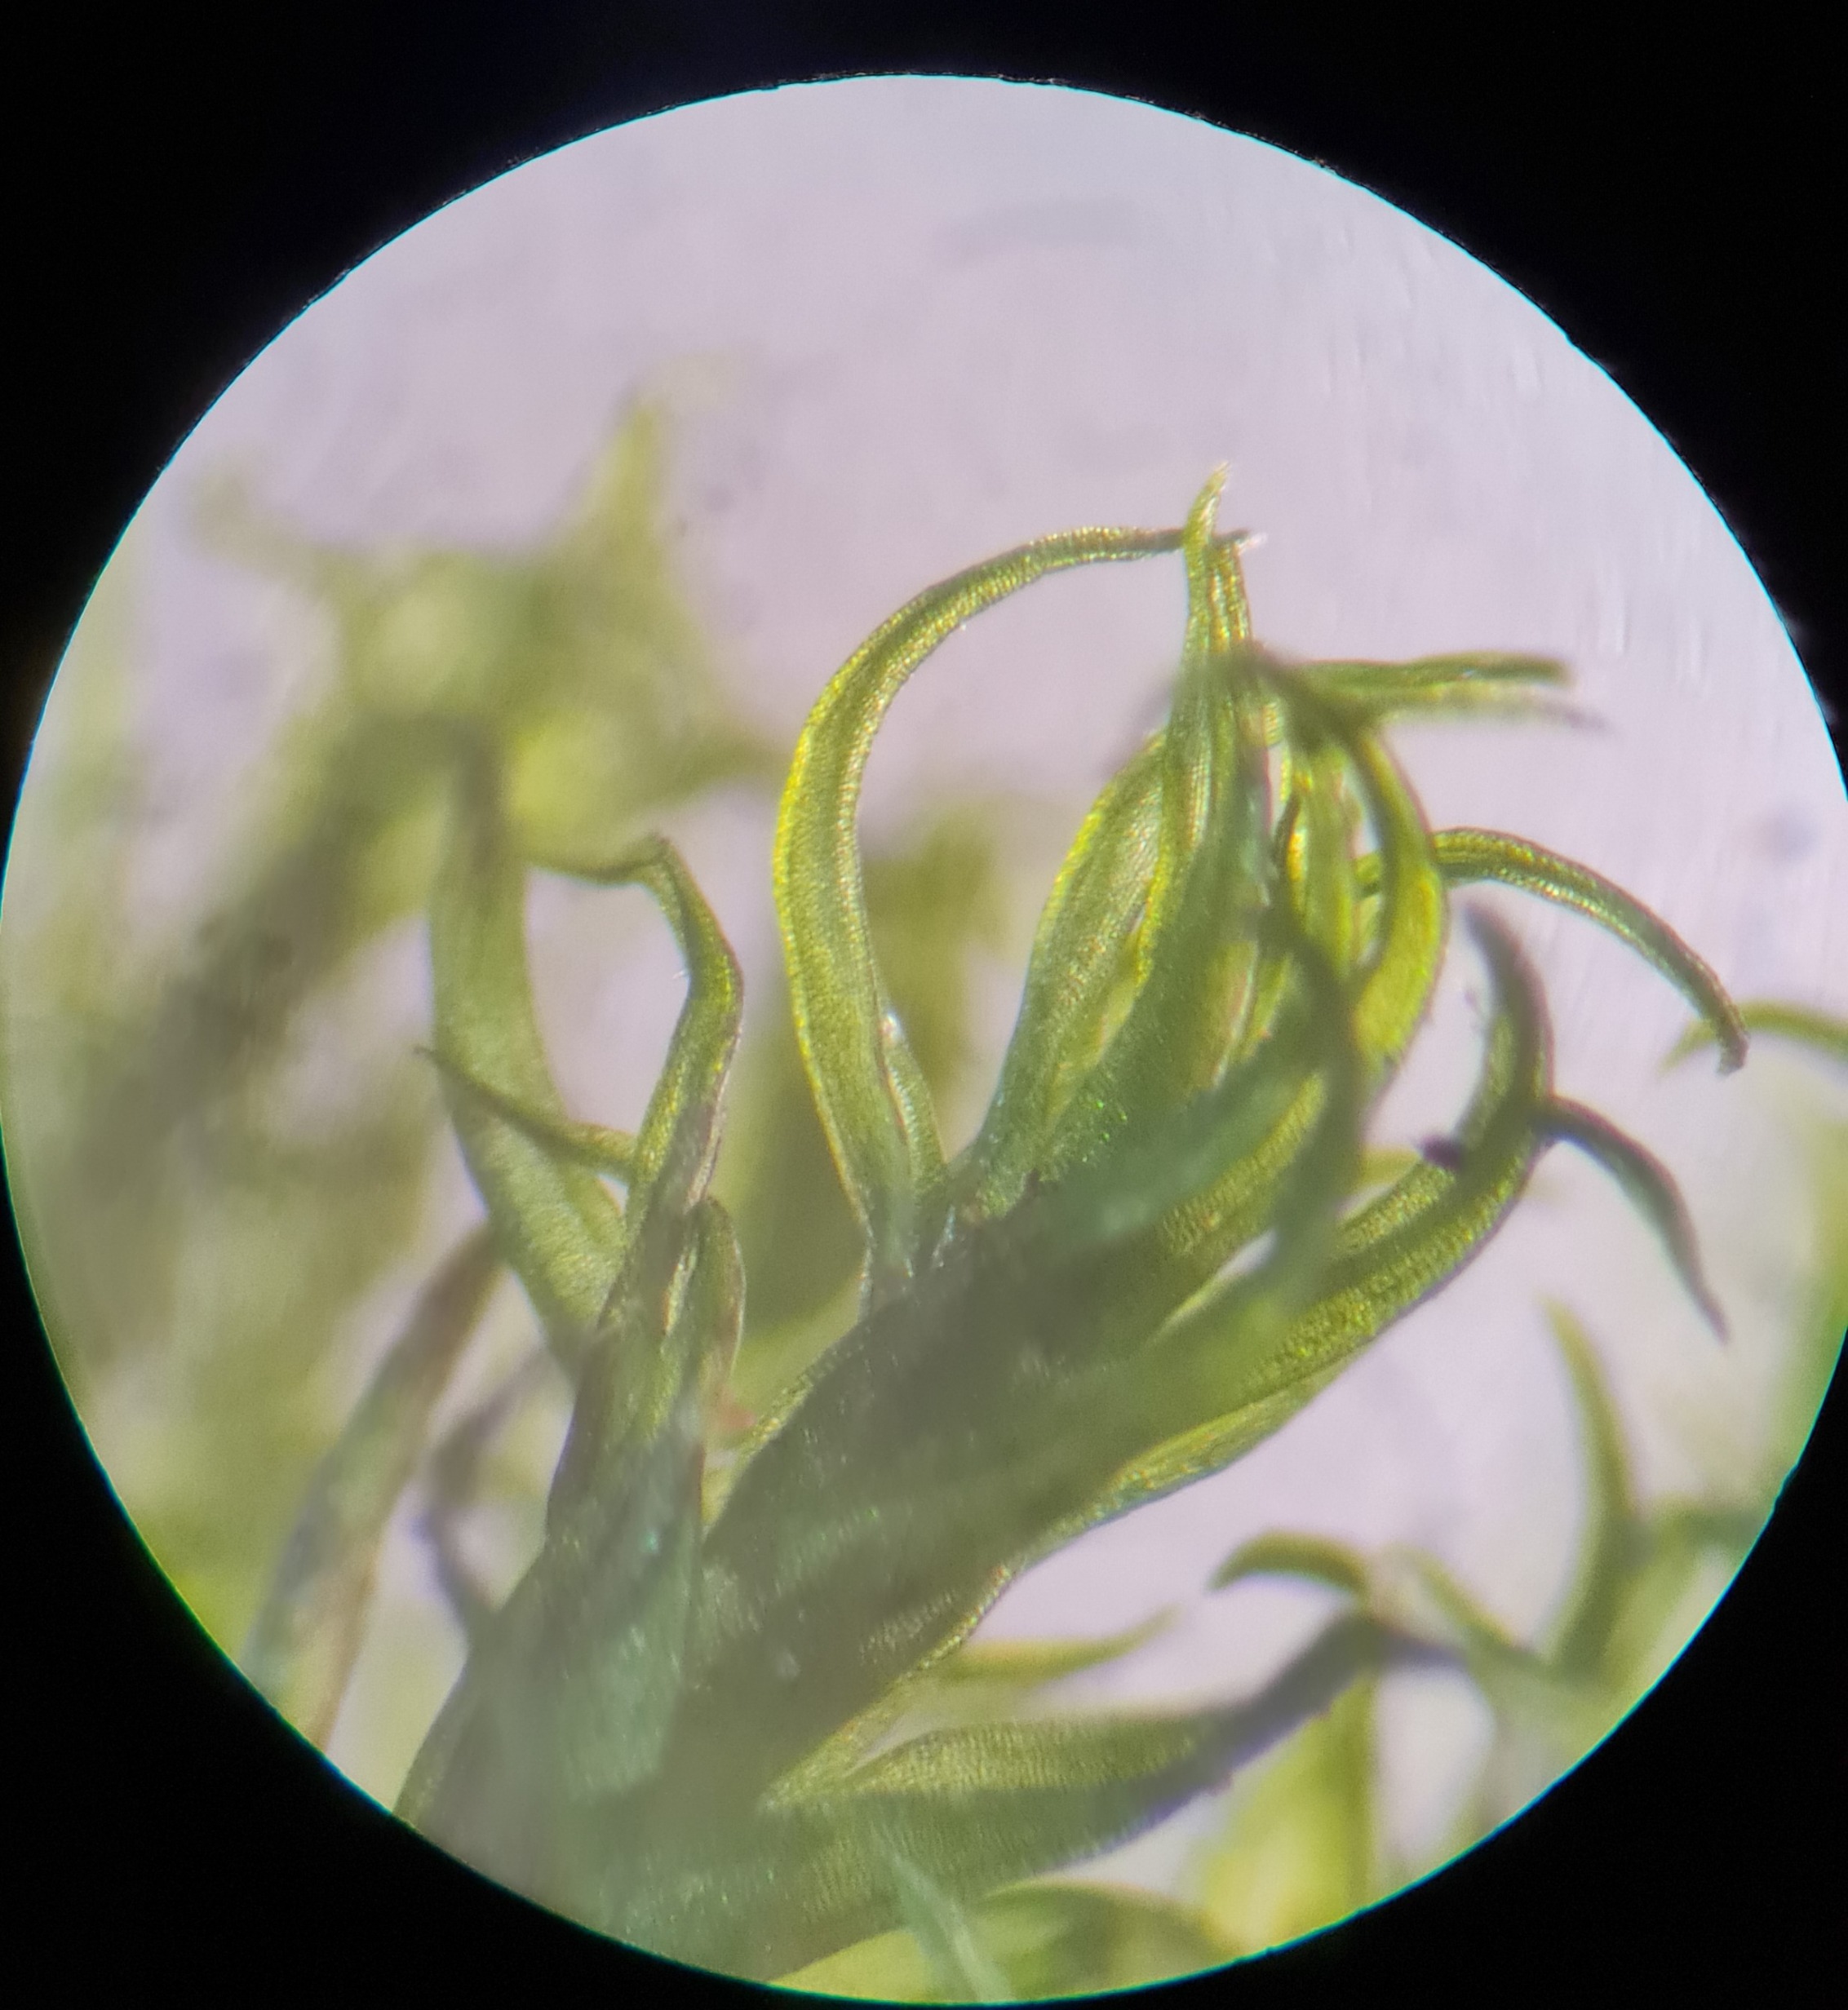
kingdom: Plantae
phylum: Bryophyta
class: Bryopsida
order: Dicranales
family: Ditrichaceae
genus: Ceratodon
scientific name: Ceratodon purpureus
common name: Rød horntand
